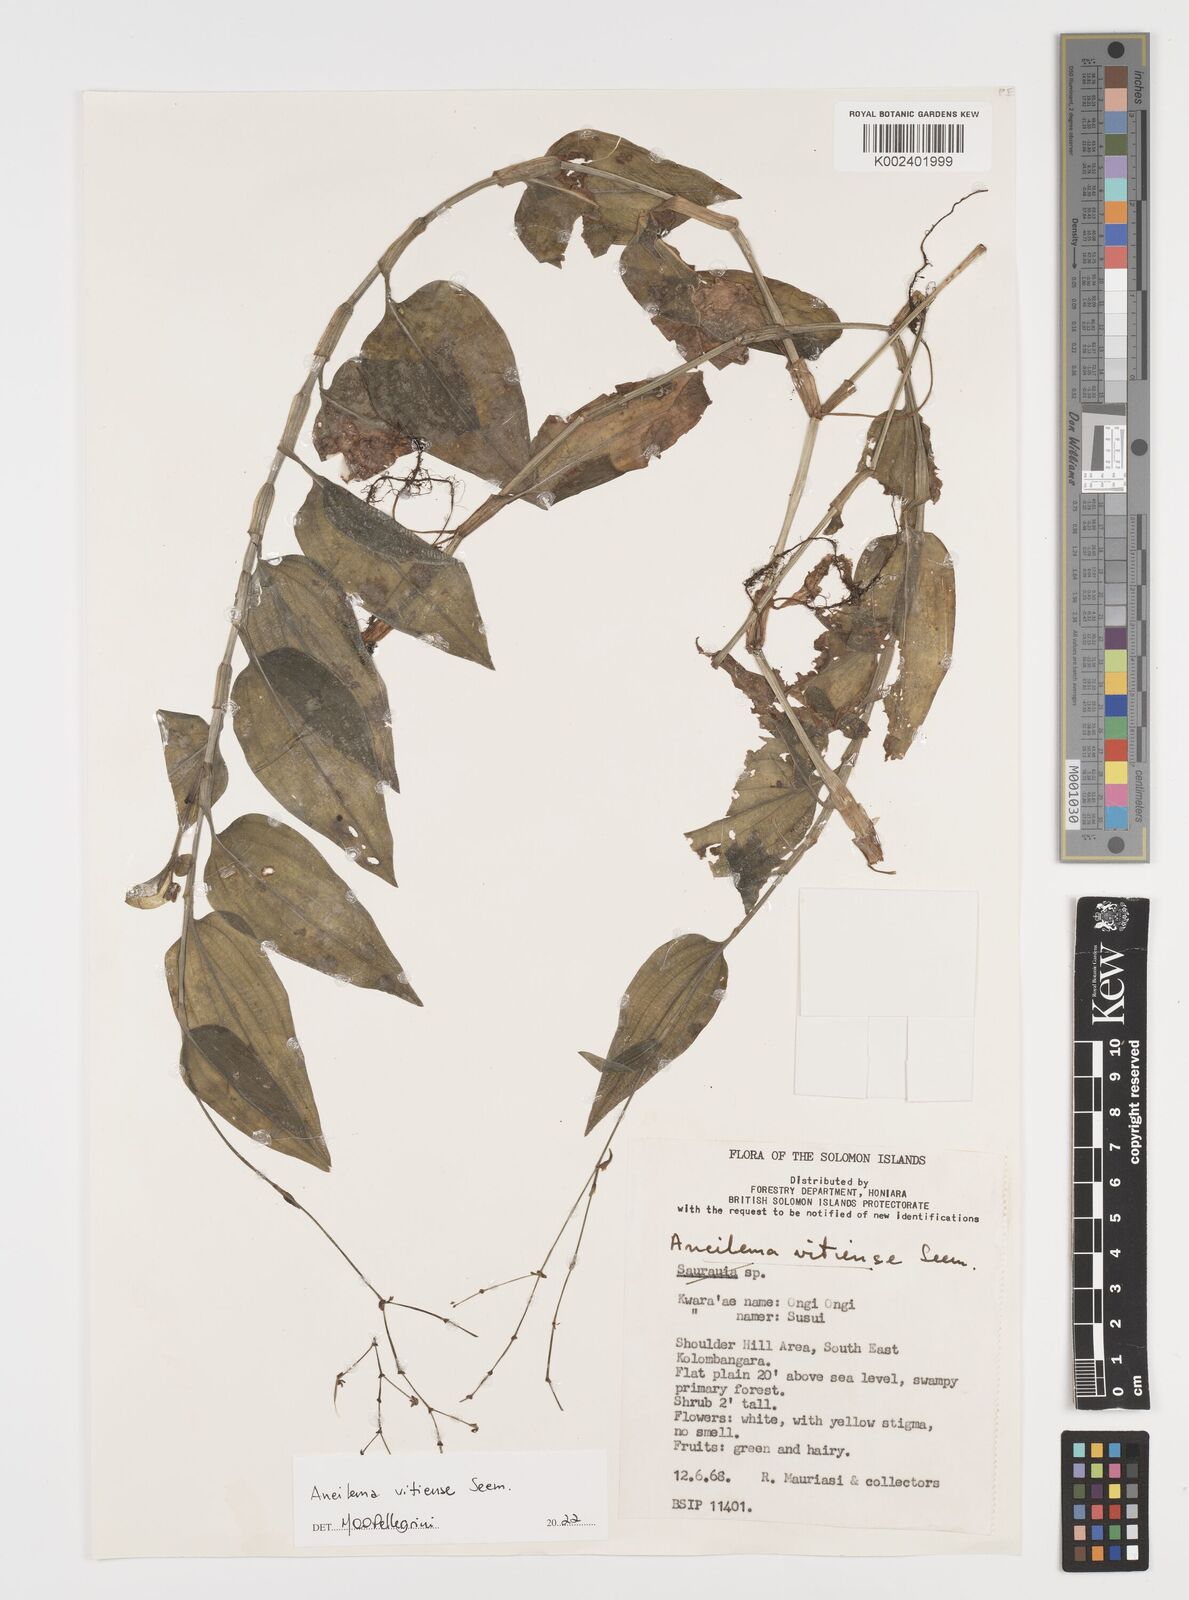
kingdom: Plantae
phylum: Tracheophyta
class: Liliopsida
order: Commelinales
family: Commelinaceae
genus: Rhopalephora
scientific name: Rhopalephora vitiensis
